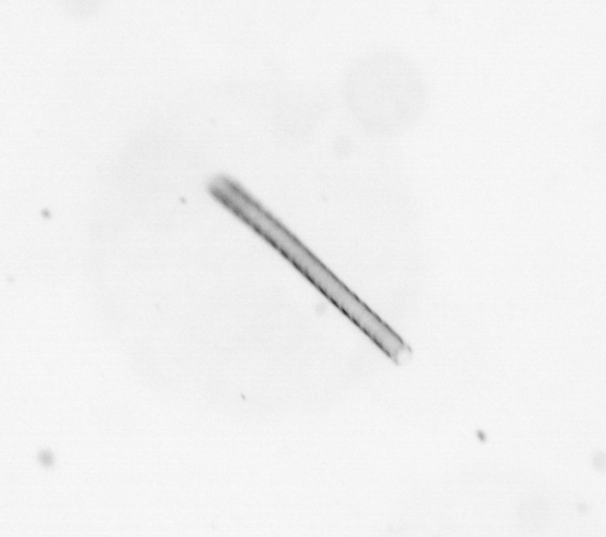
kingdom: Chromista
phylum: Ochrophyta
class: Bacillariophyceae
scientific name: Bacillariophyceae
